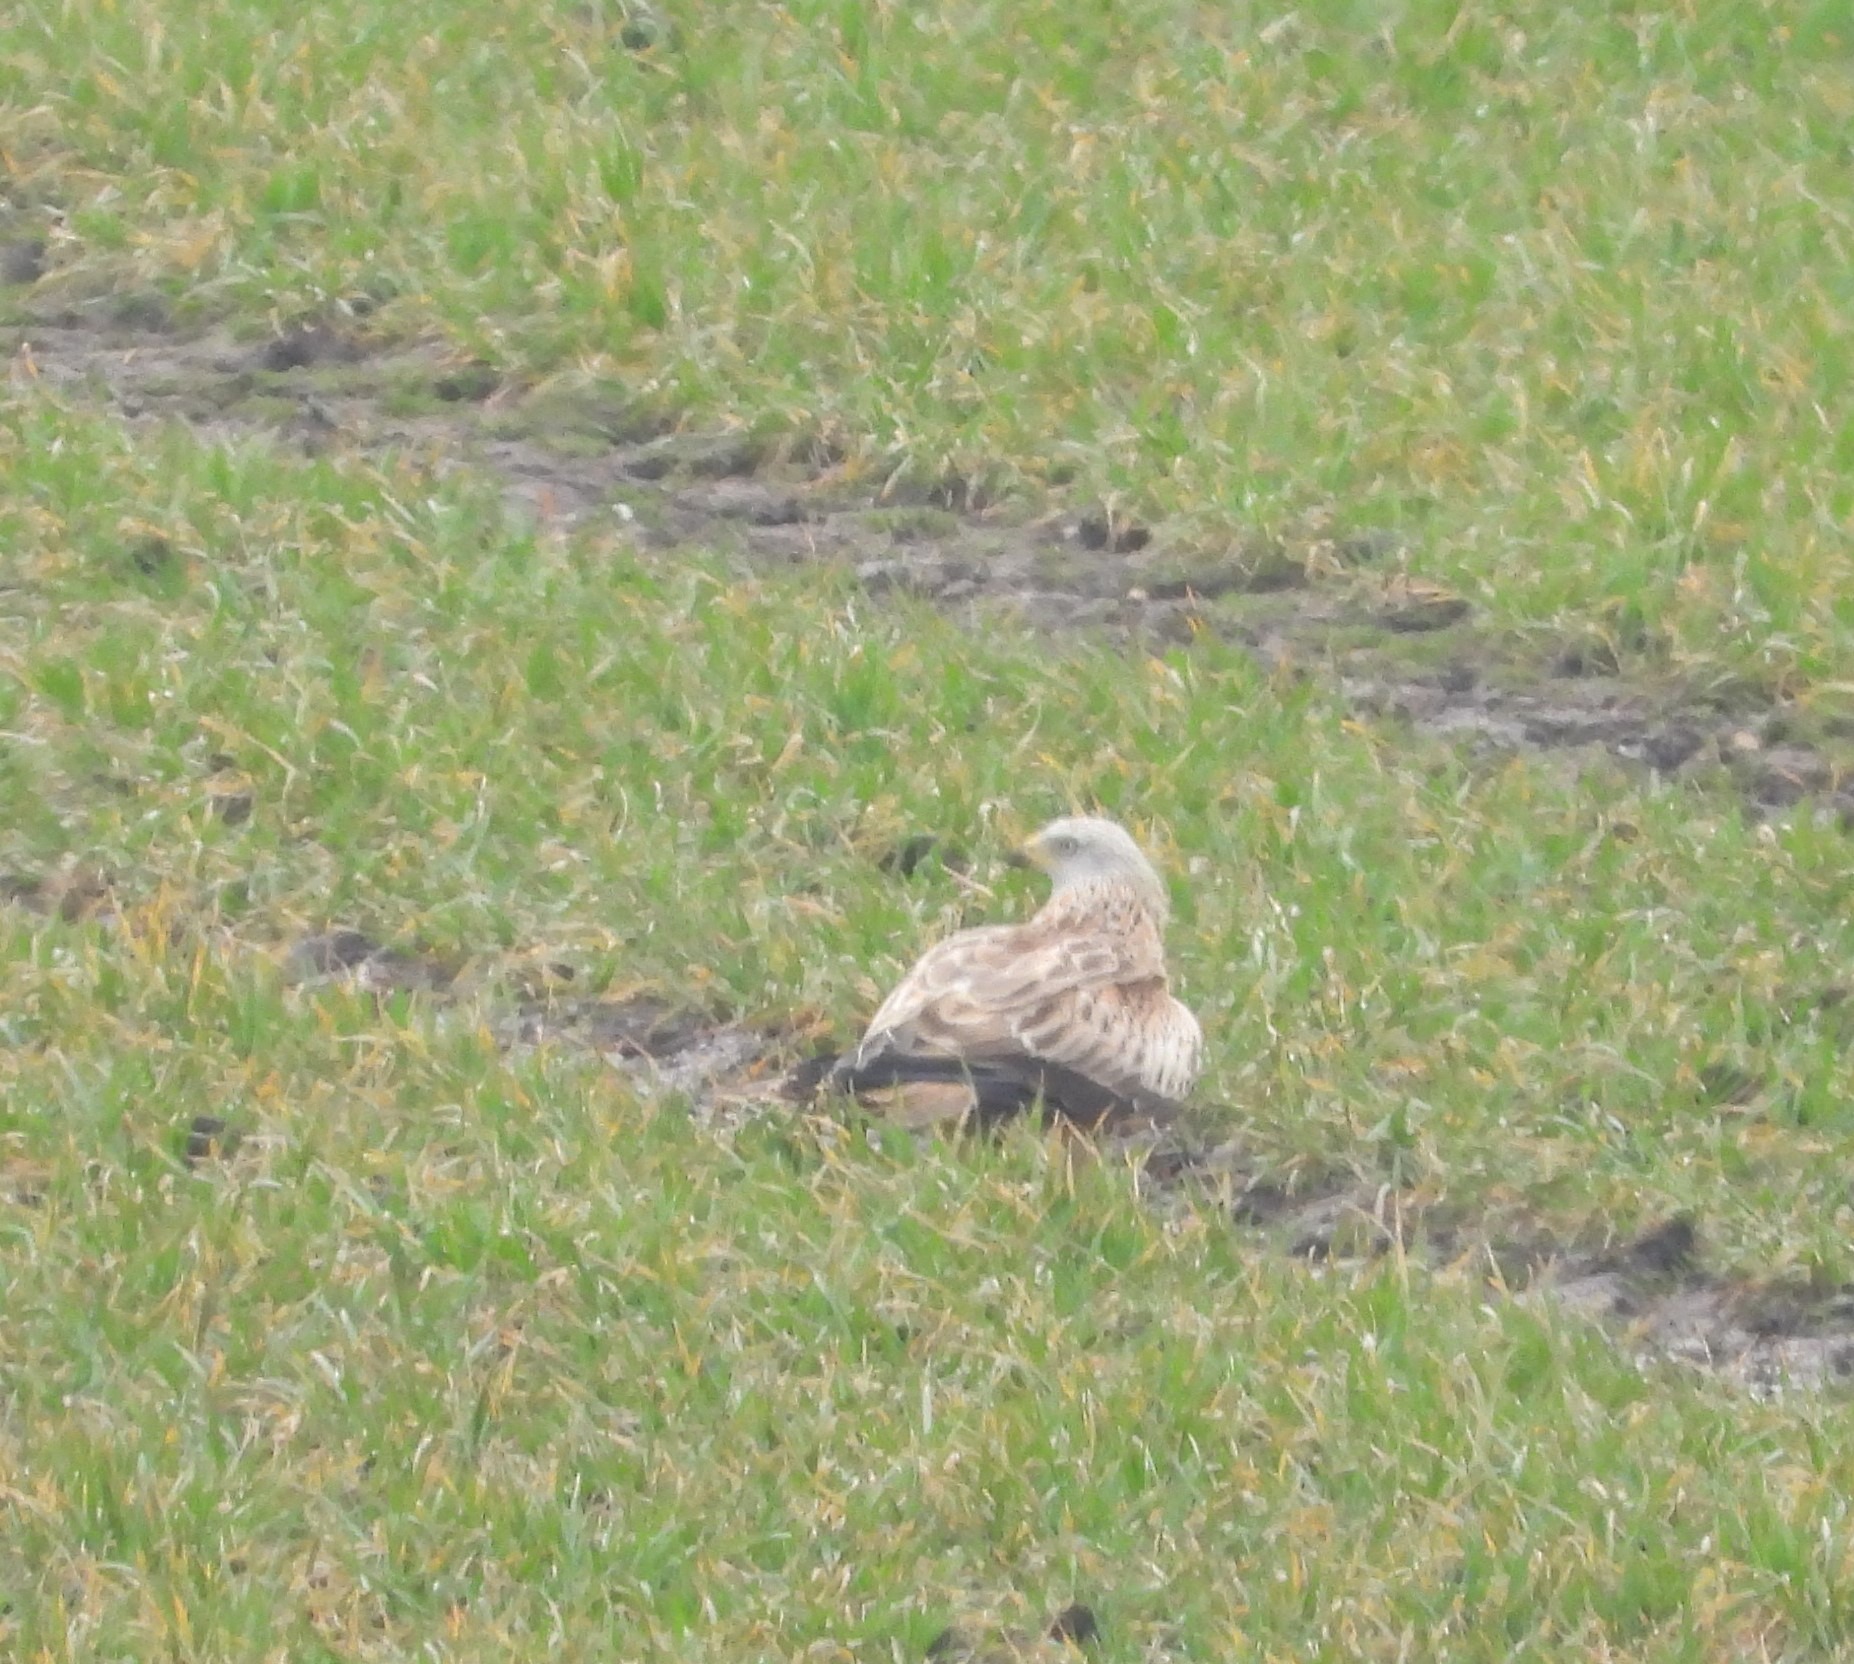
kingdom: Animalia
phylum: Chordata
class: Aves
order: Accipitriformes
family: Accipitridae
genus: Milvus
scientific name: Milvus milvus
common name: Rød glente
